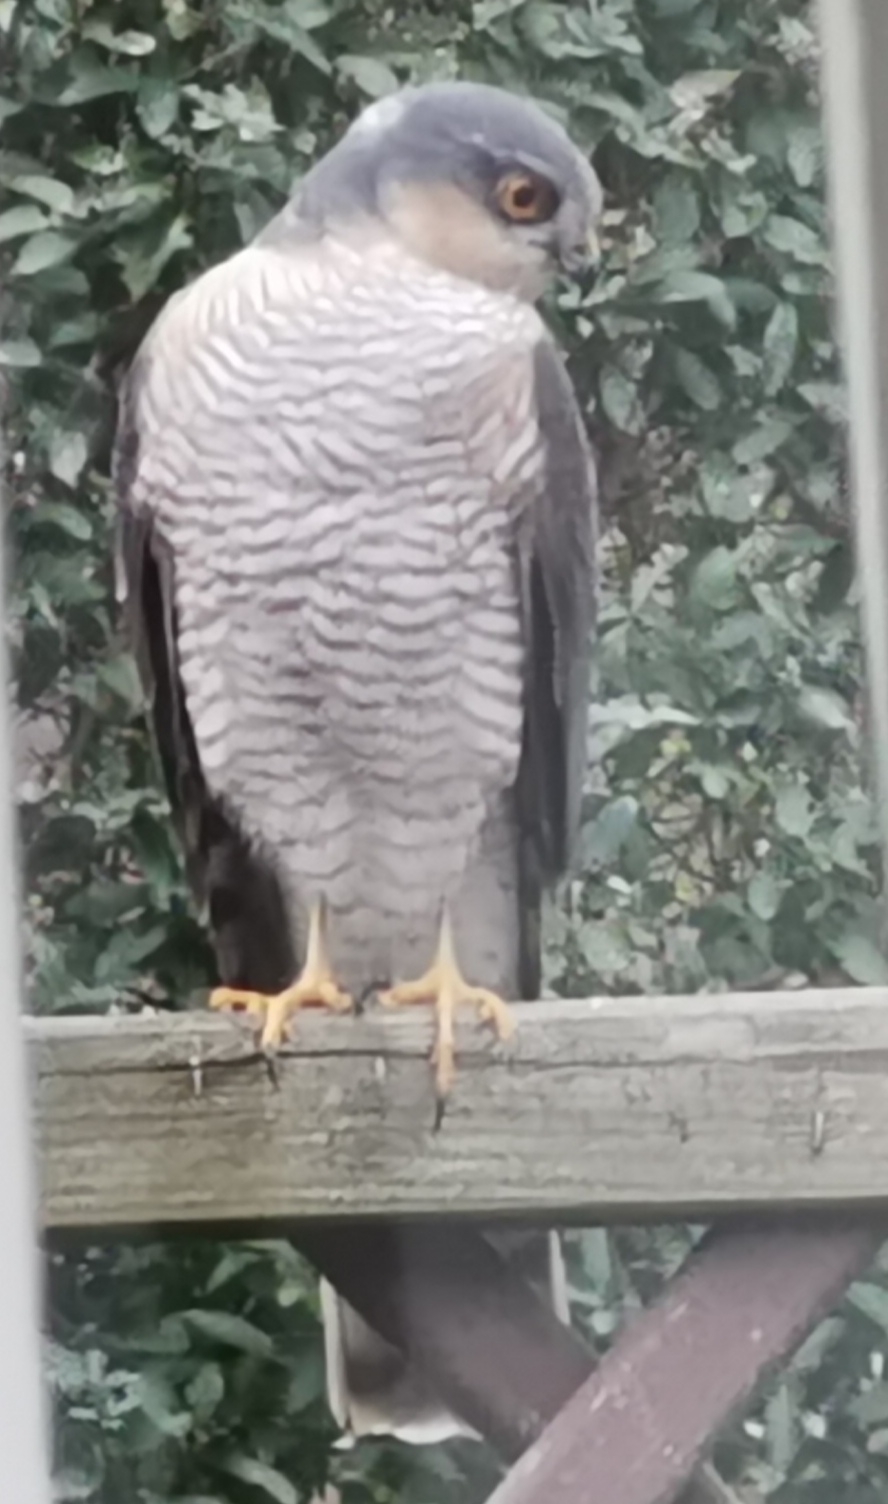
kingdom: Animalia
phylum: Chordata
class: Aves
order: Accipitriformes
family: Accipitridae
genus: Accipiter
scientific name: Accipiter nisus
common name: Spurvehøg
